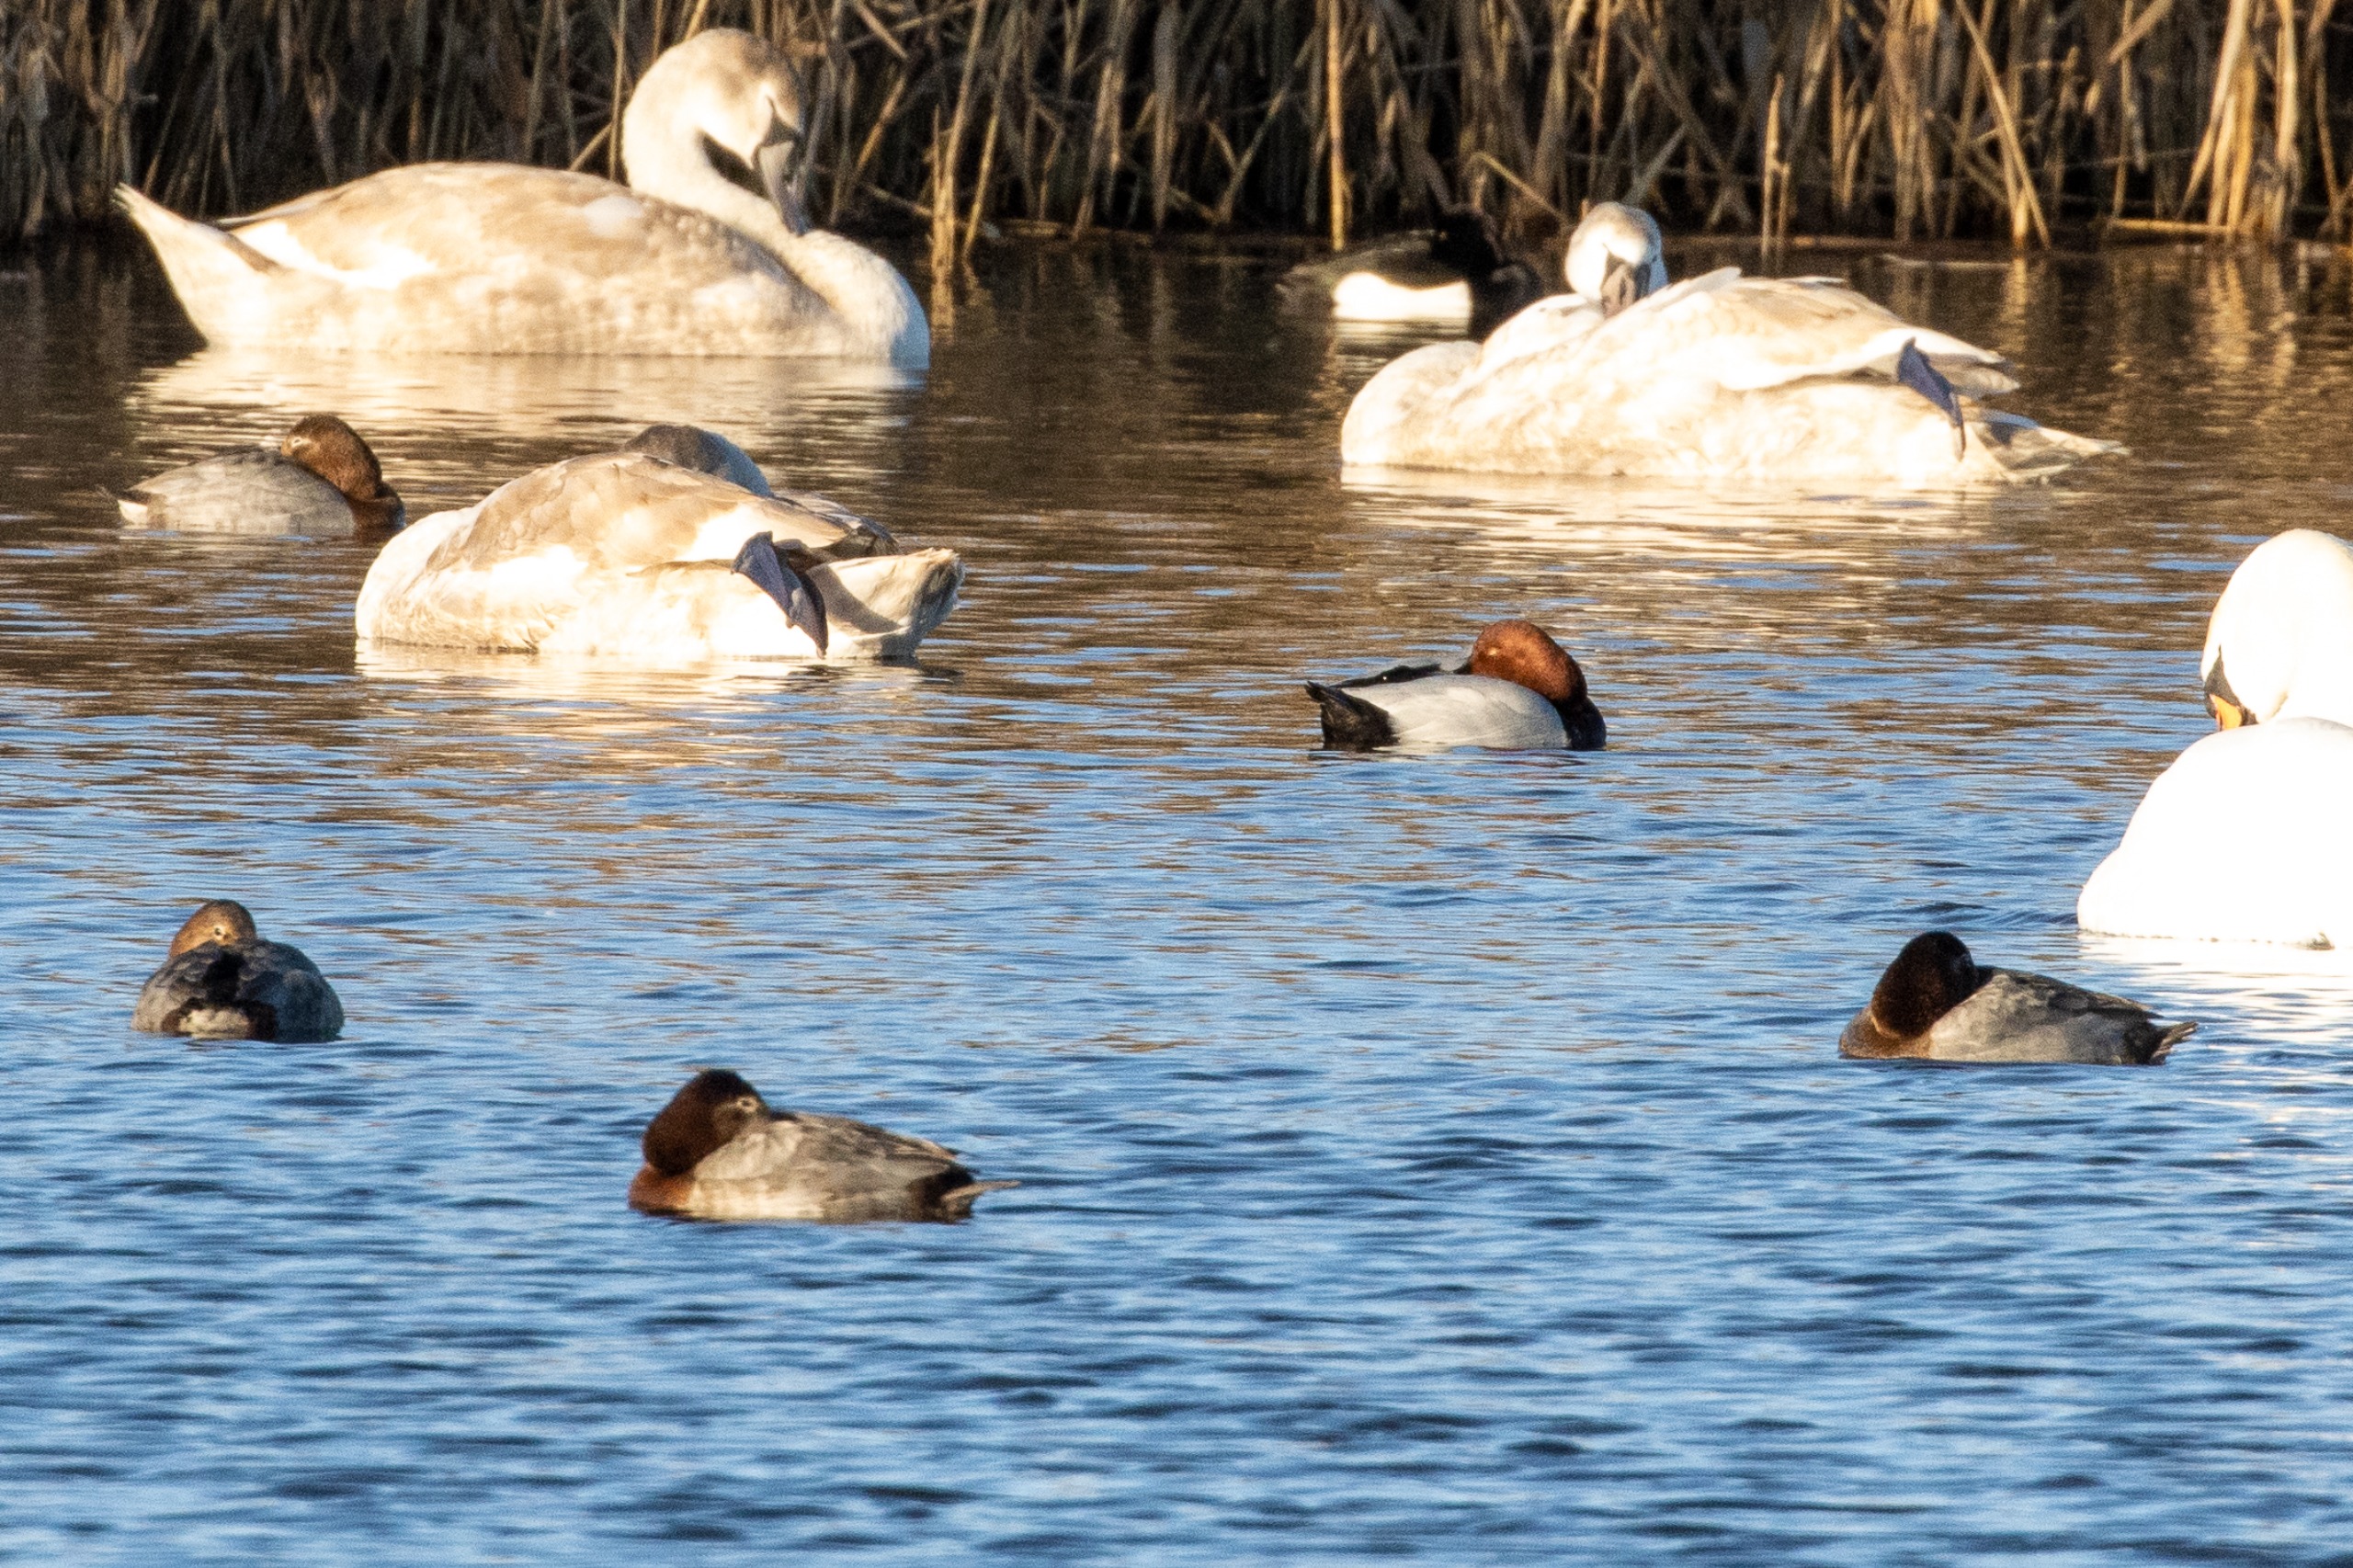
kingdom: Animalia
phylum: Chordata
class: Aves
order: Anseriformes
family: Anatidae
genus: Aythya
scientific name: Aythya ferina
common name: Taffeland
